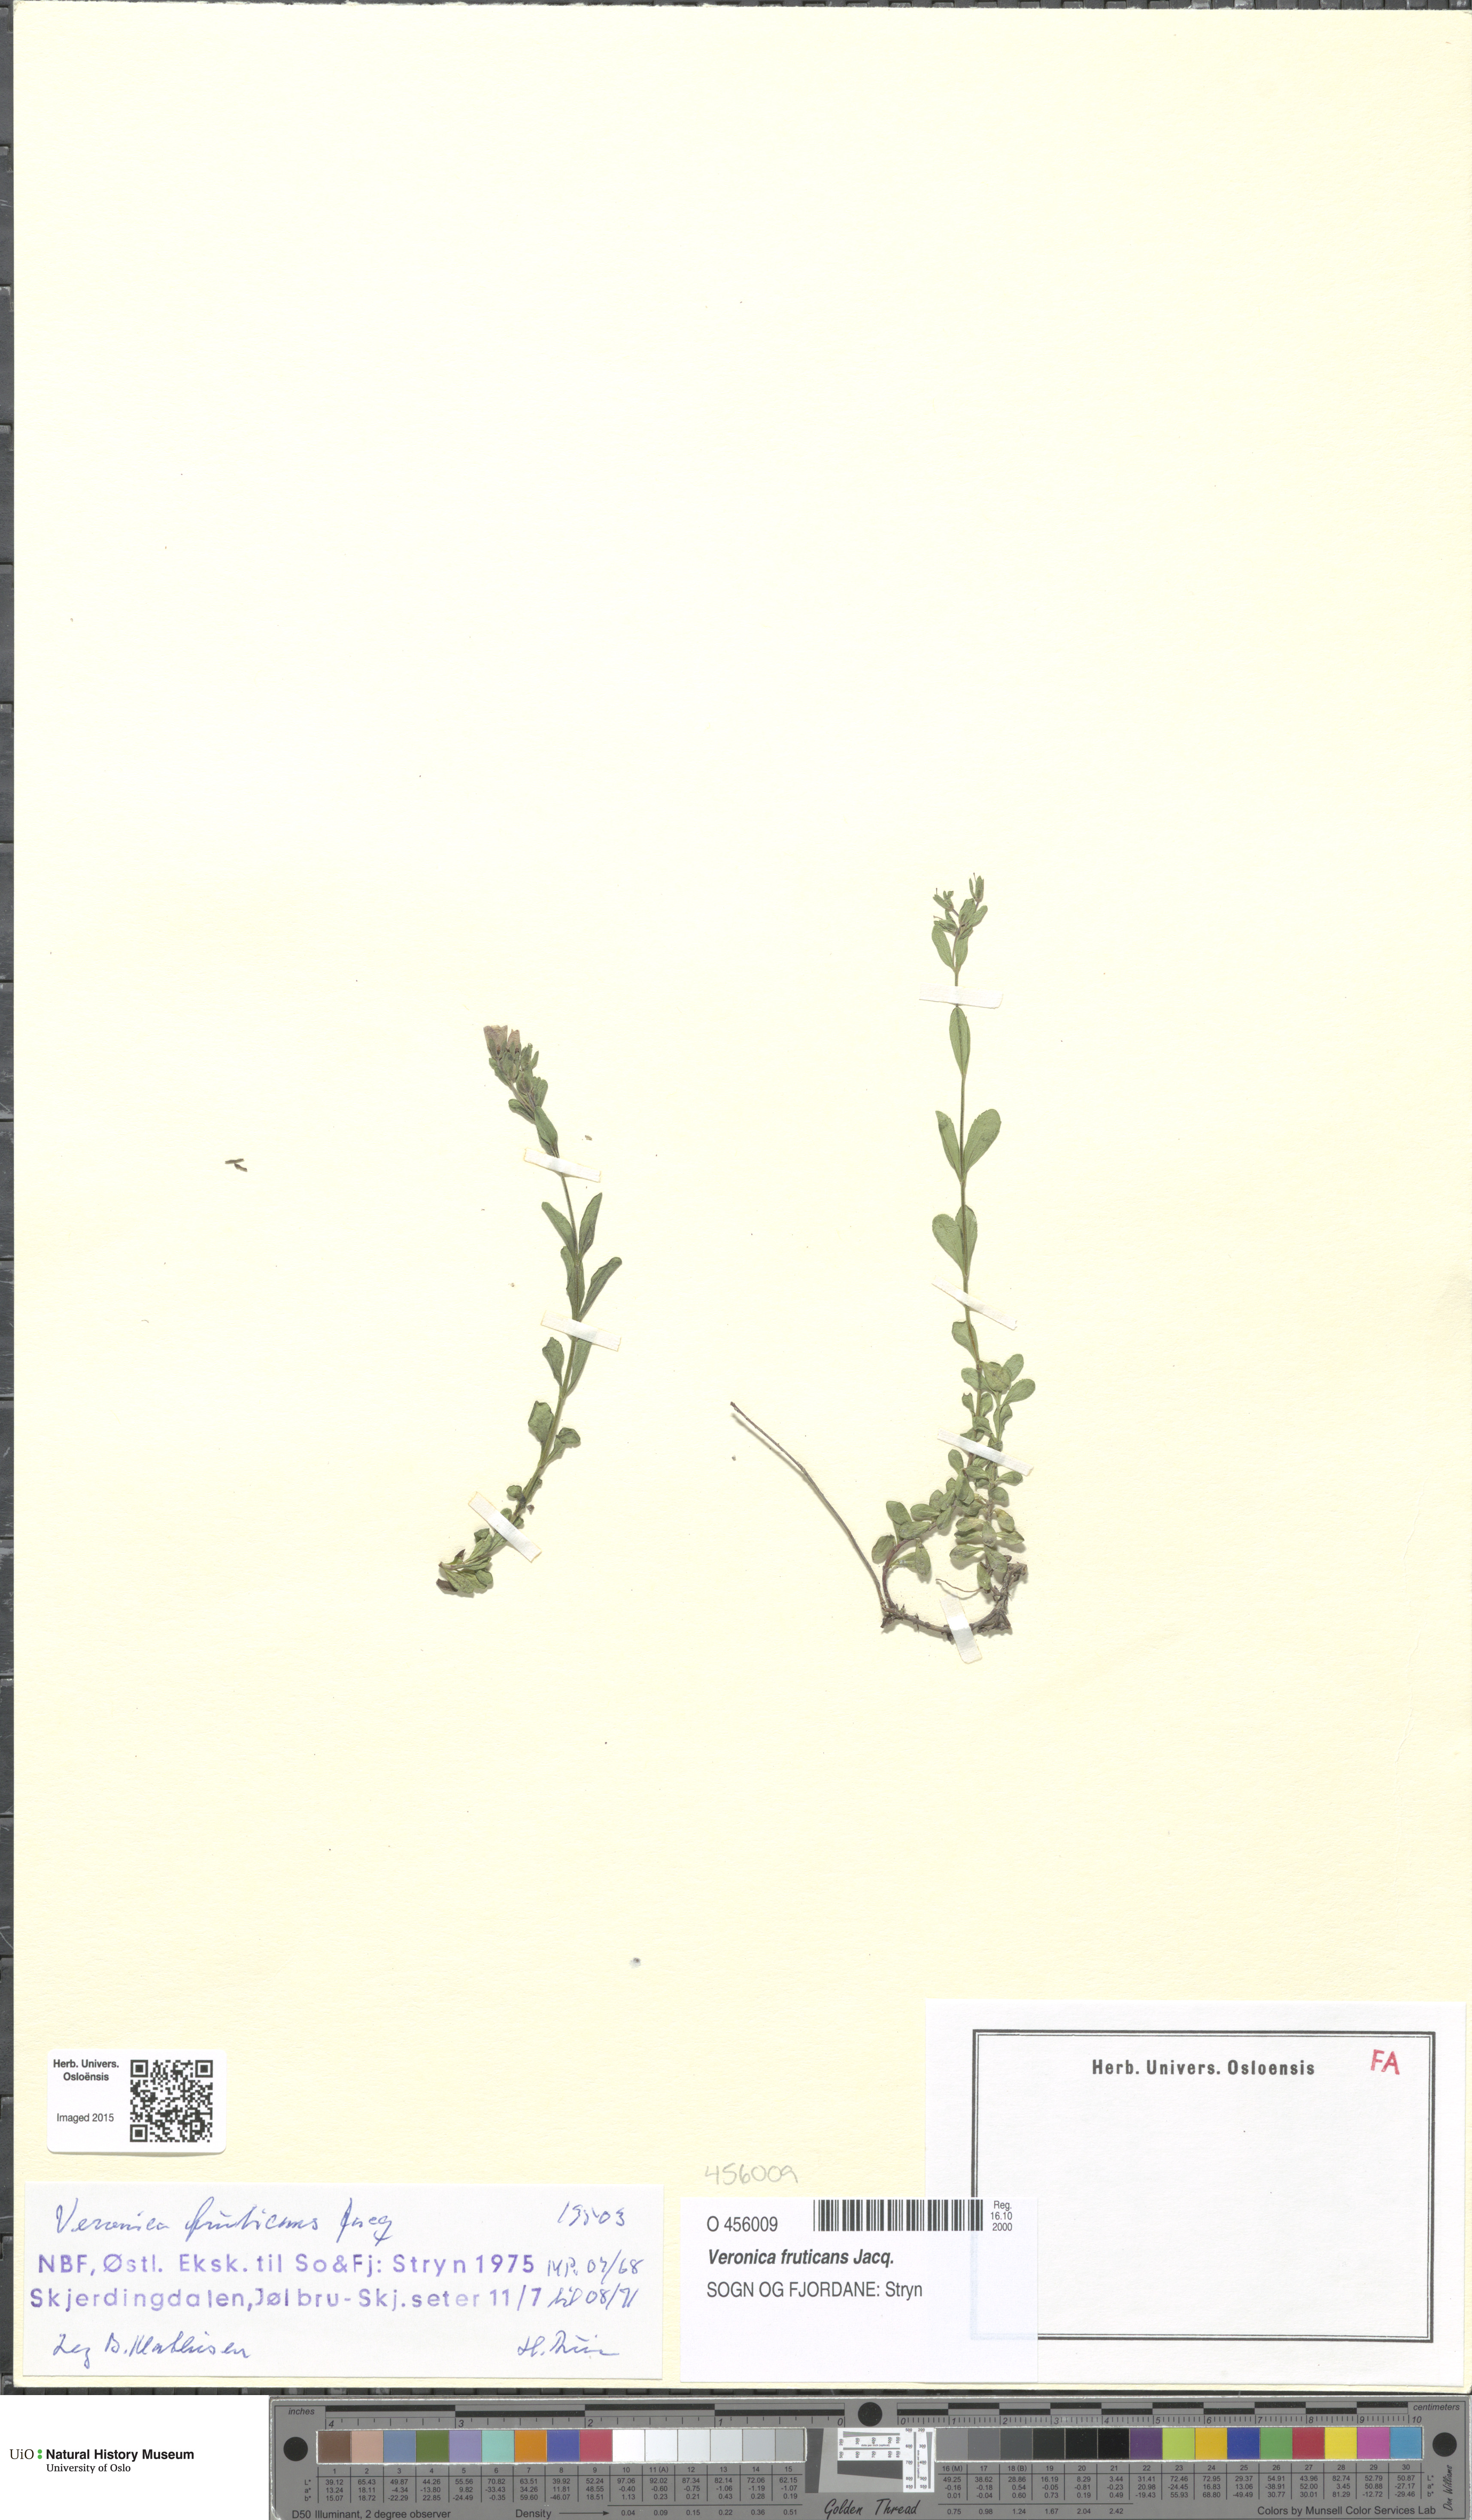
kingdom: Plantae
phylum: Tracheophyta
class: Magnoliopsida
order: Lamiales
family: Plantaginaceae
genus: Veronica
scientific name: Veronica fruticans
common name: Rock speedwell
